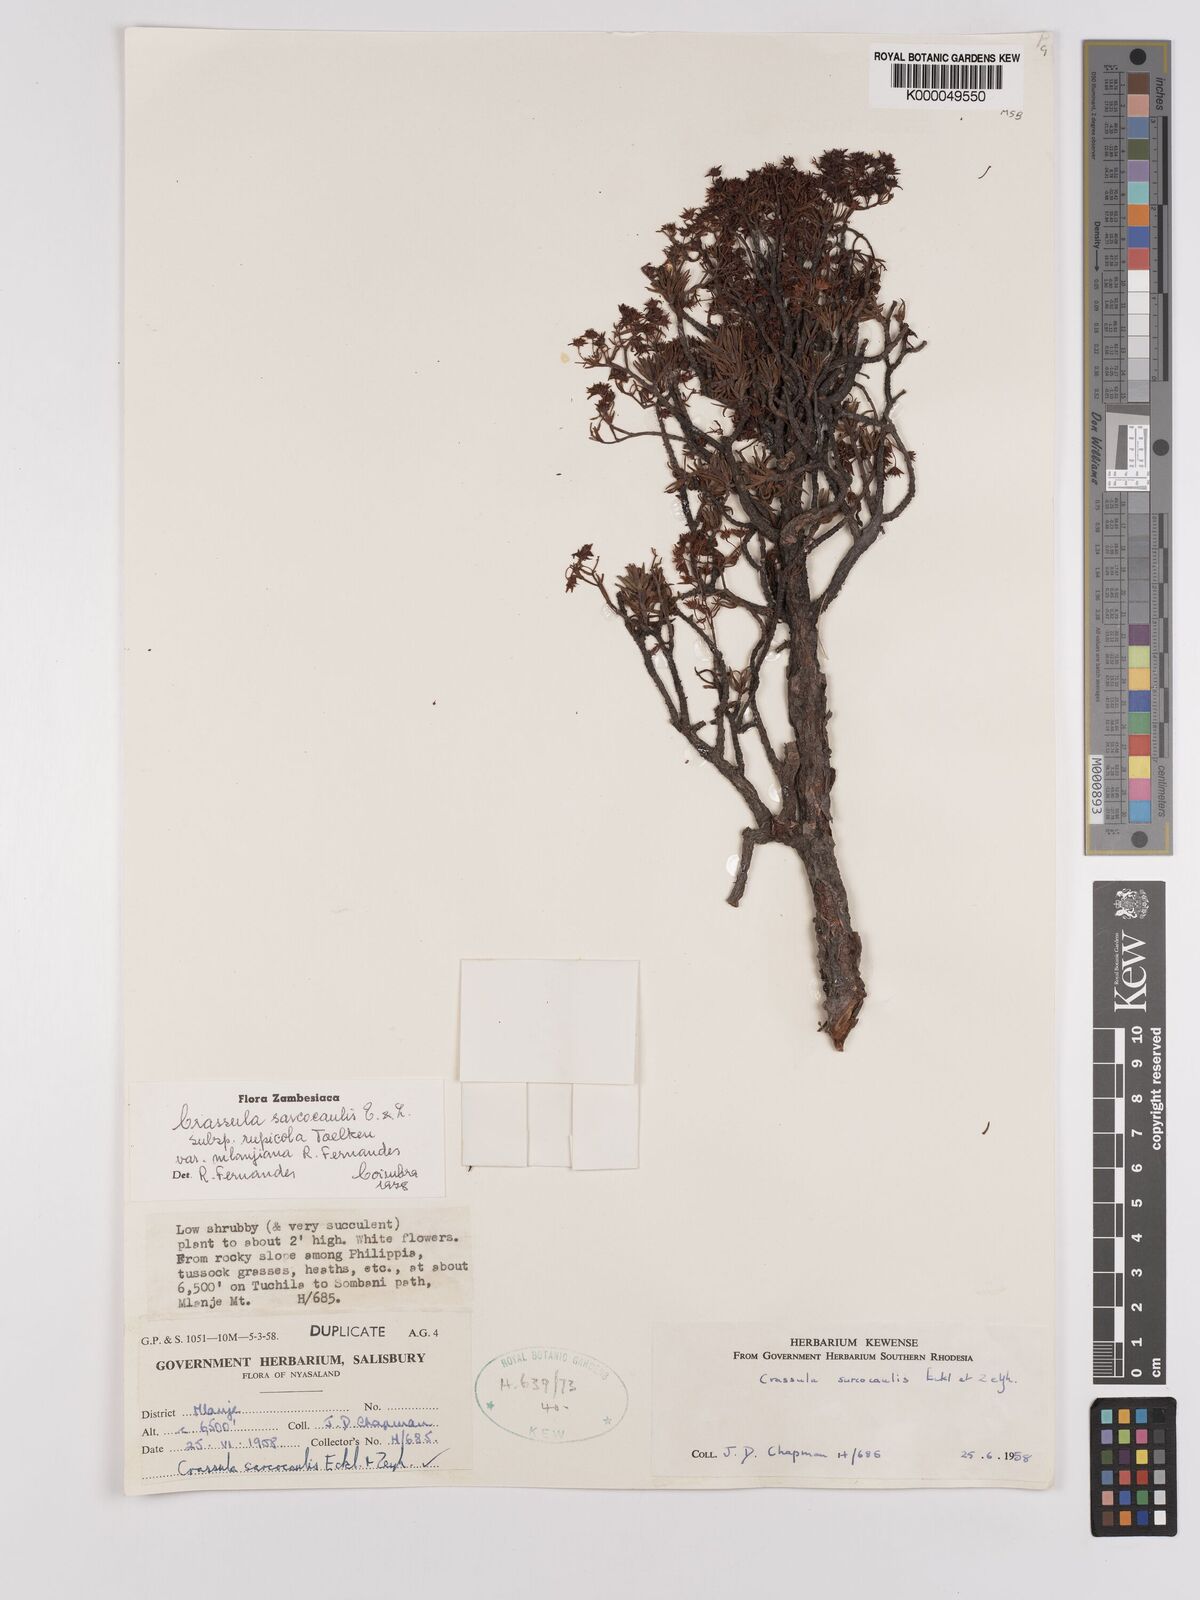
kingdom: Plantae
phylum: Tracheophyta
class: Magnoliopsida
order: Saxifragales
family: Crassulaceae
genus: Crassula
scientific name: Crassula sarcocaulis
